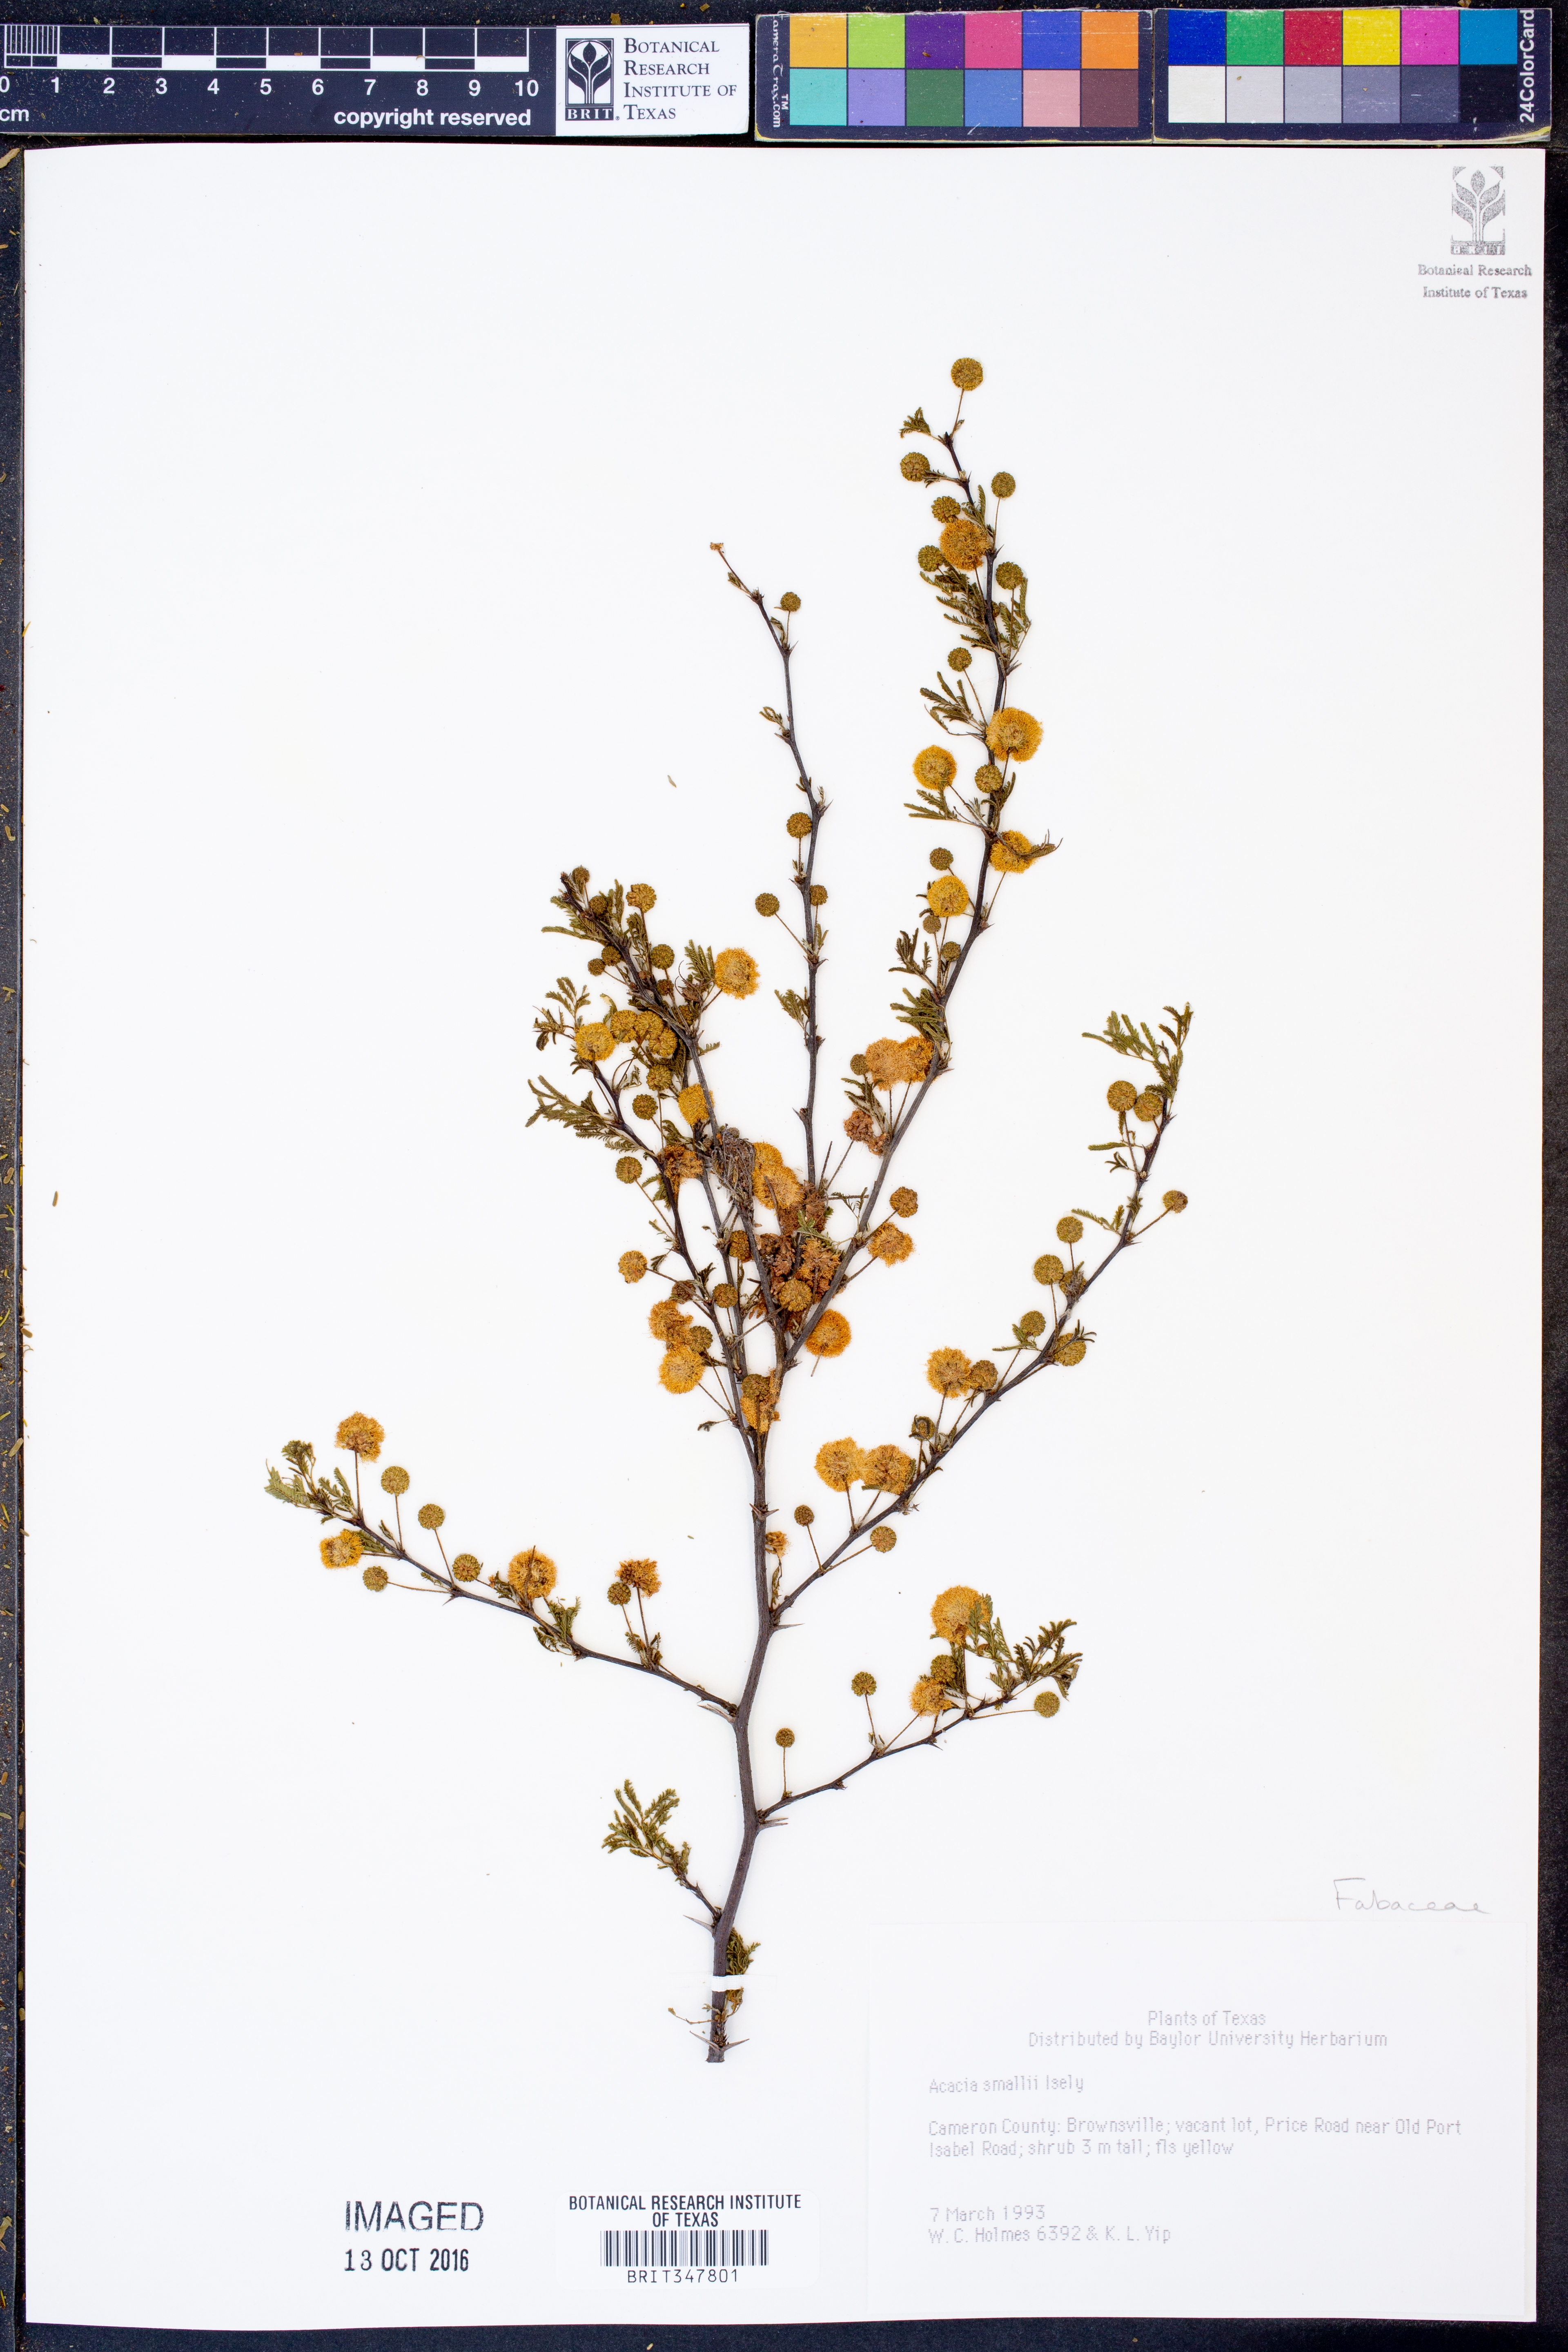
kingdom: Plantae
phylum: Tracheophyta
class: Magnoliopsida
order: Fabales
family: Fabaceae
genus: Vachellia
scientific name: Vachellia farnesiana
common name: Sweet acacia
